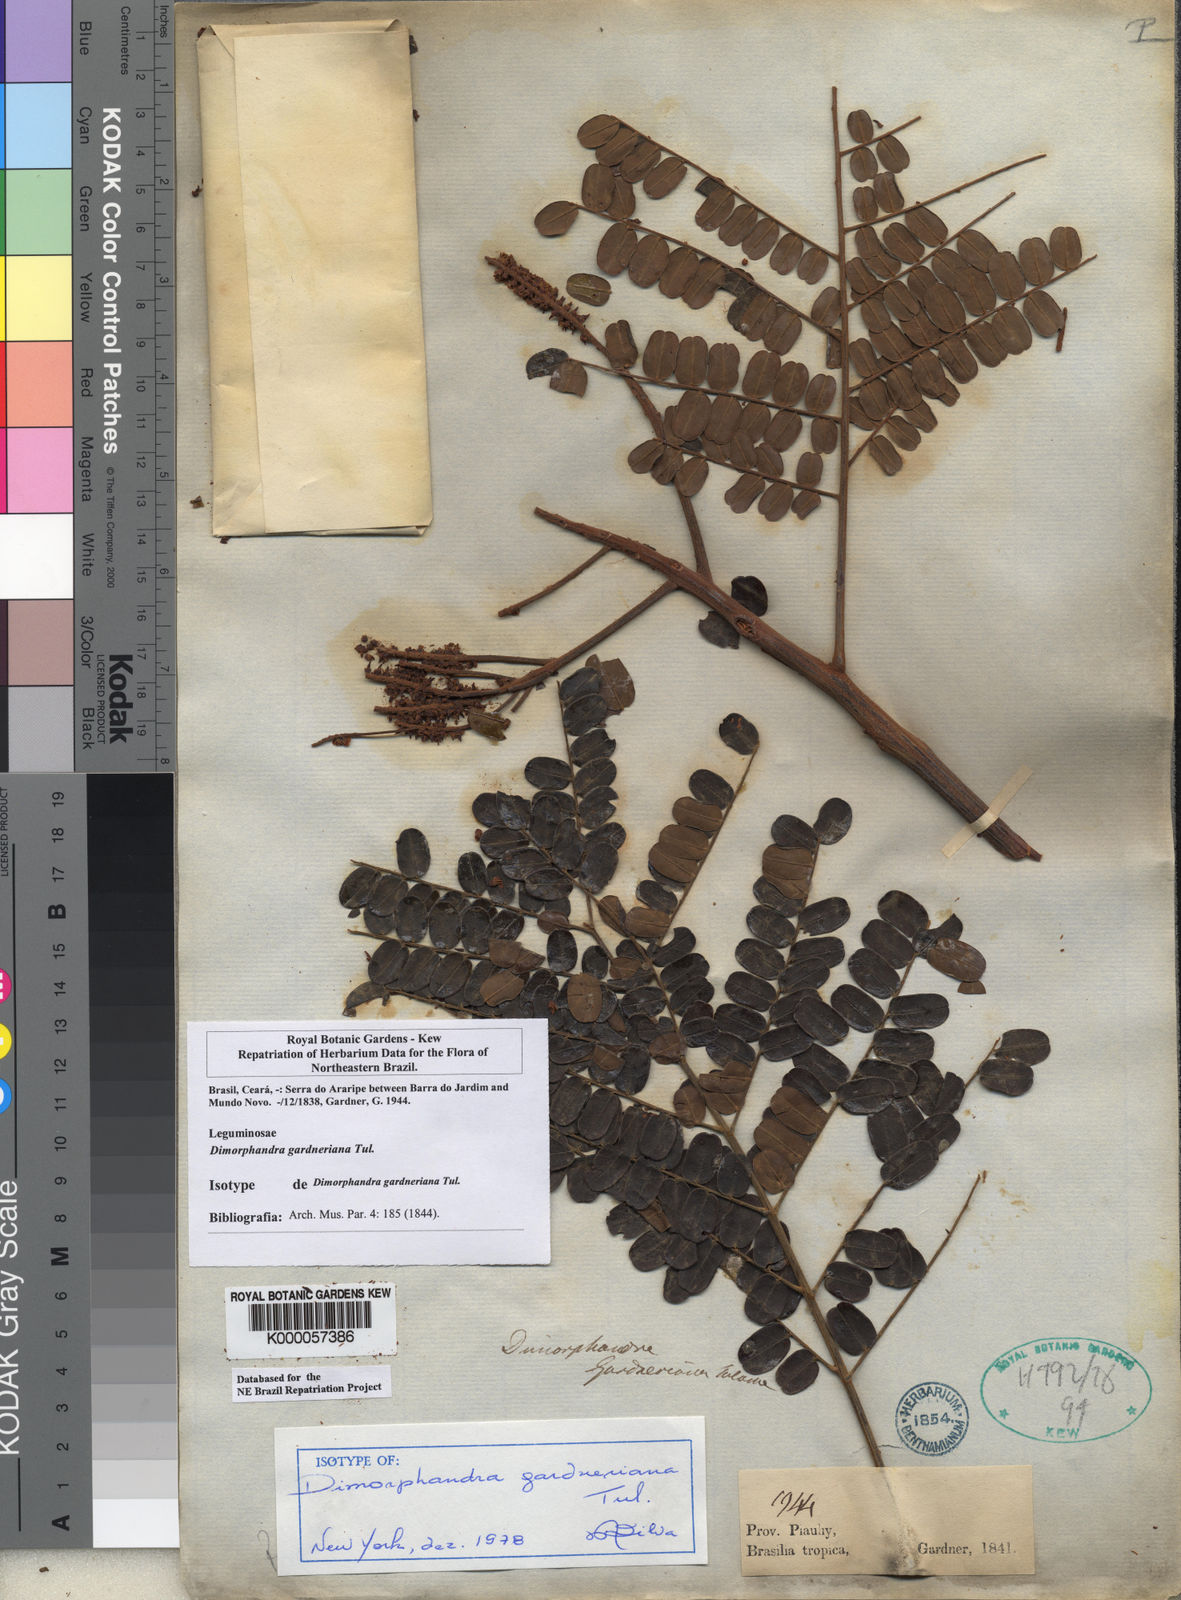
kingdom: Plantae
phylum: Tracheophyta
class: Magnoliopsida
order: Fabales
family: Fabaceae
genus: Dimorphandra
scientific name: Dimorphandra gardneriana
